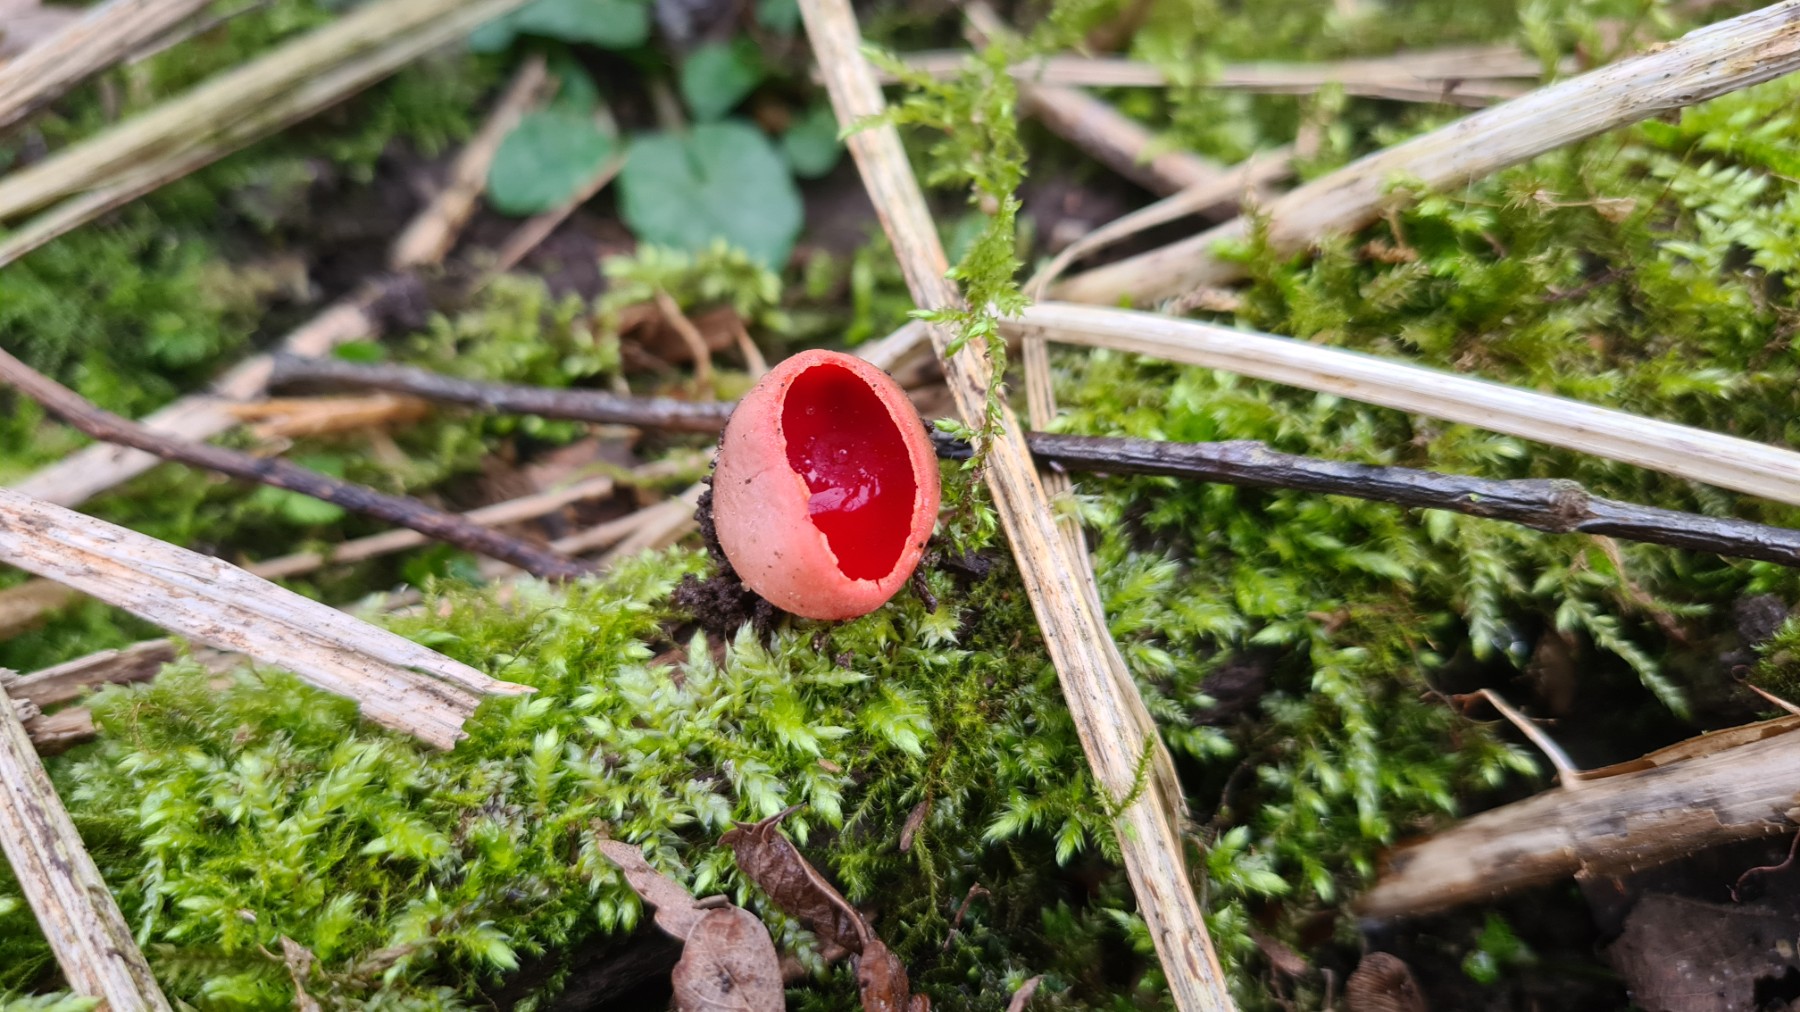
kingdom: Fungi
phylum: Ascomycota
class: Pezizomycetes
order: Pezizales
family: Sarcoscyphaceae
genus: Sarcoscypha
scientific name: Sarcoscypha austriaca
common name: krølhåret pragtbæger
